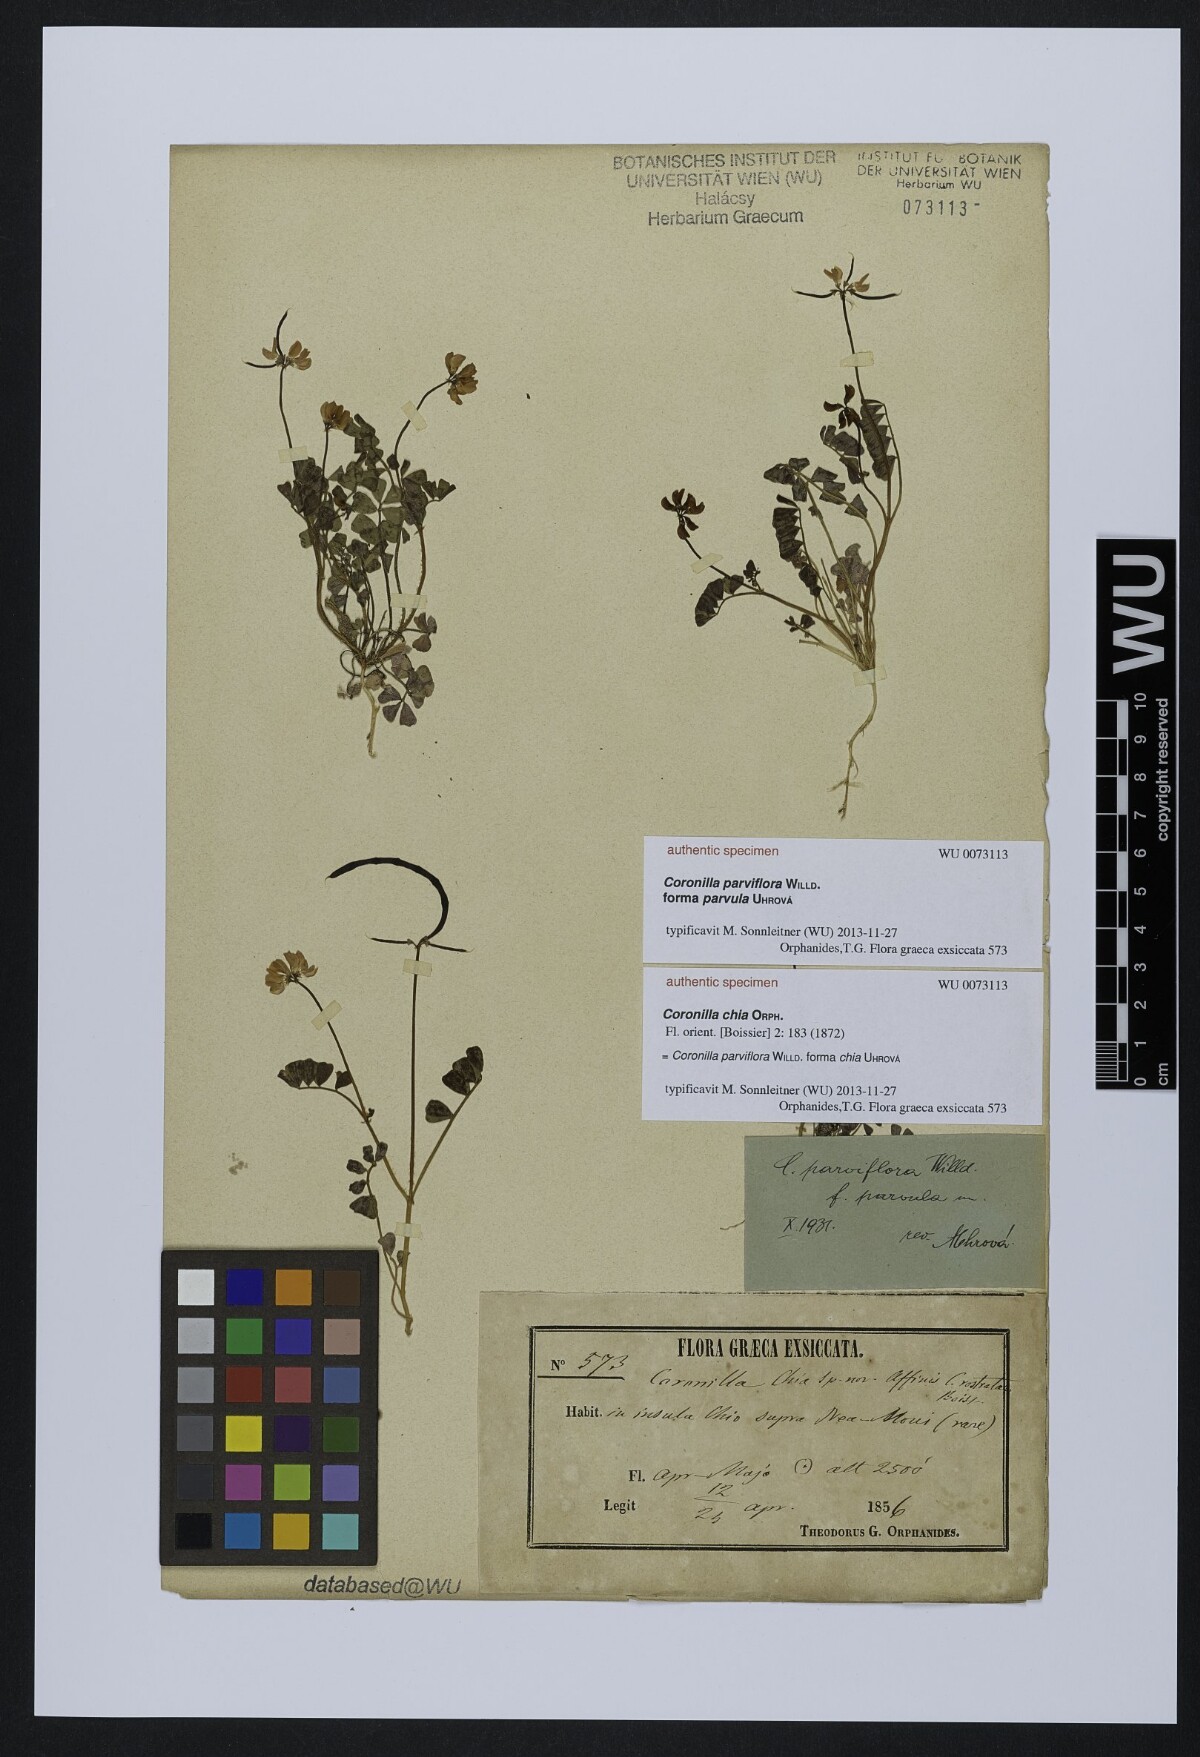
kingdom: Plantae
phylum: Tracheophyta
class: Magnoliopsida
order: Fabales
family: Fabaceae
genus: Coronilla
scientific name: Coronilla cretica
